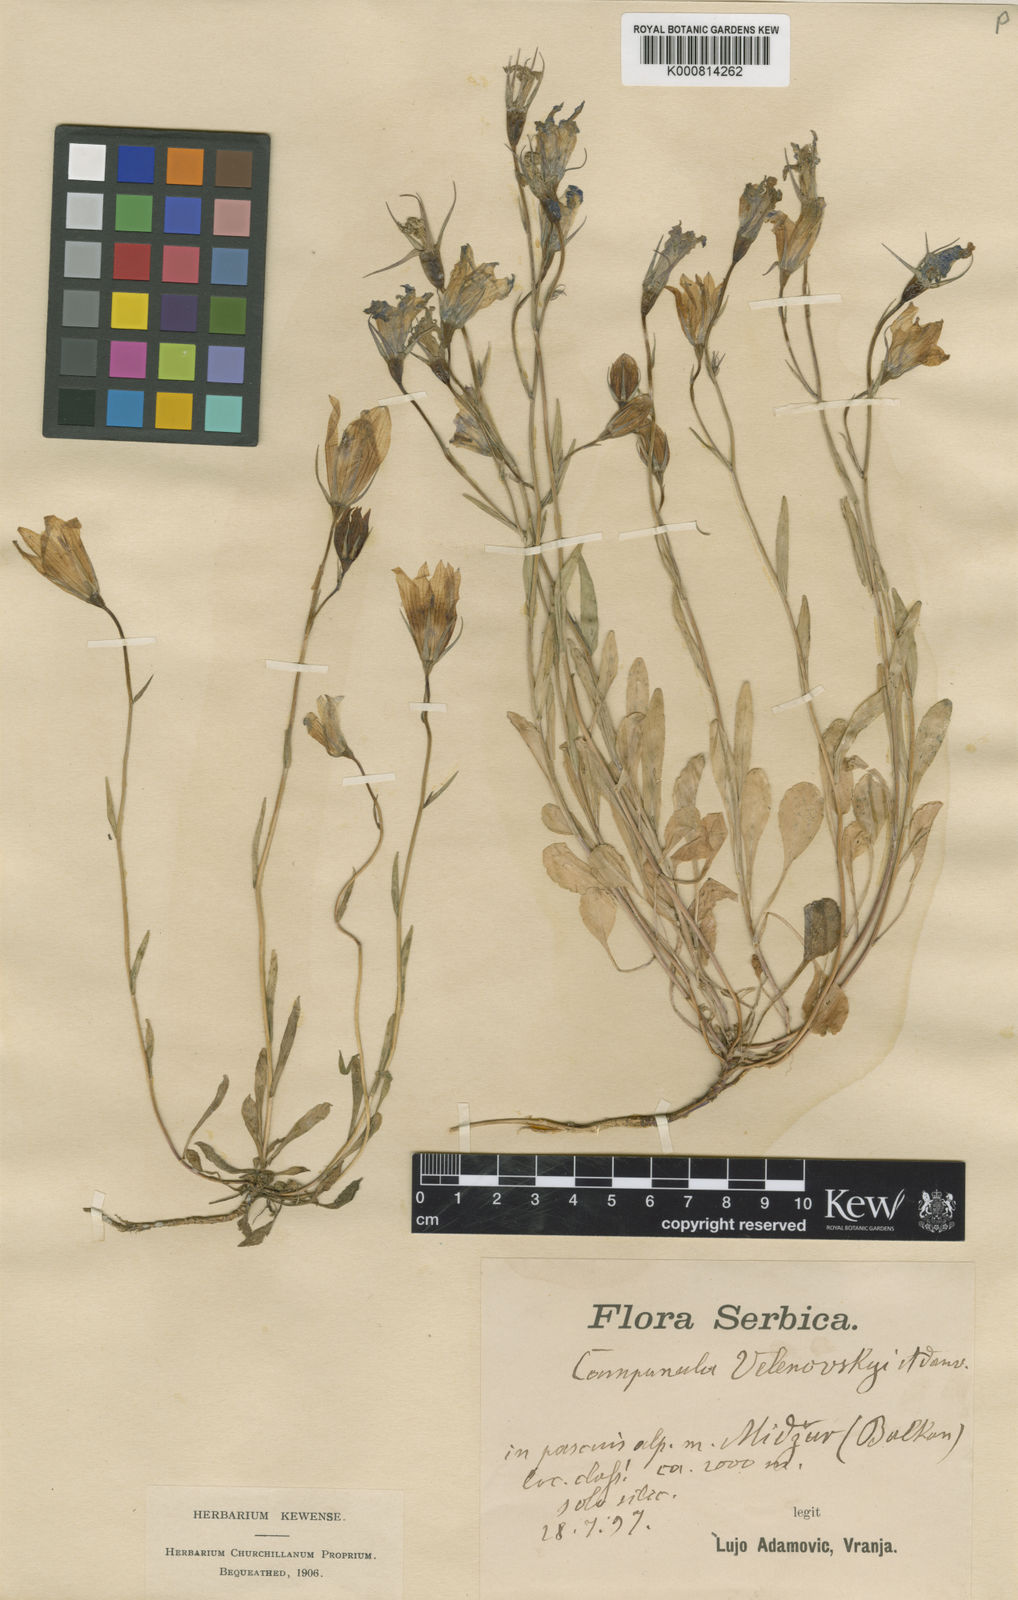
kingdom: Plantae
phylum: Tracheophyta
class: Magnoliopsida
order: Asterales
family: Campanulaceae
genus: Campanula
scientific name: Campanula patula
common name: Spreading bellflower
